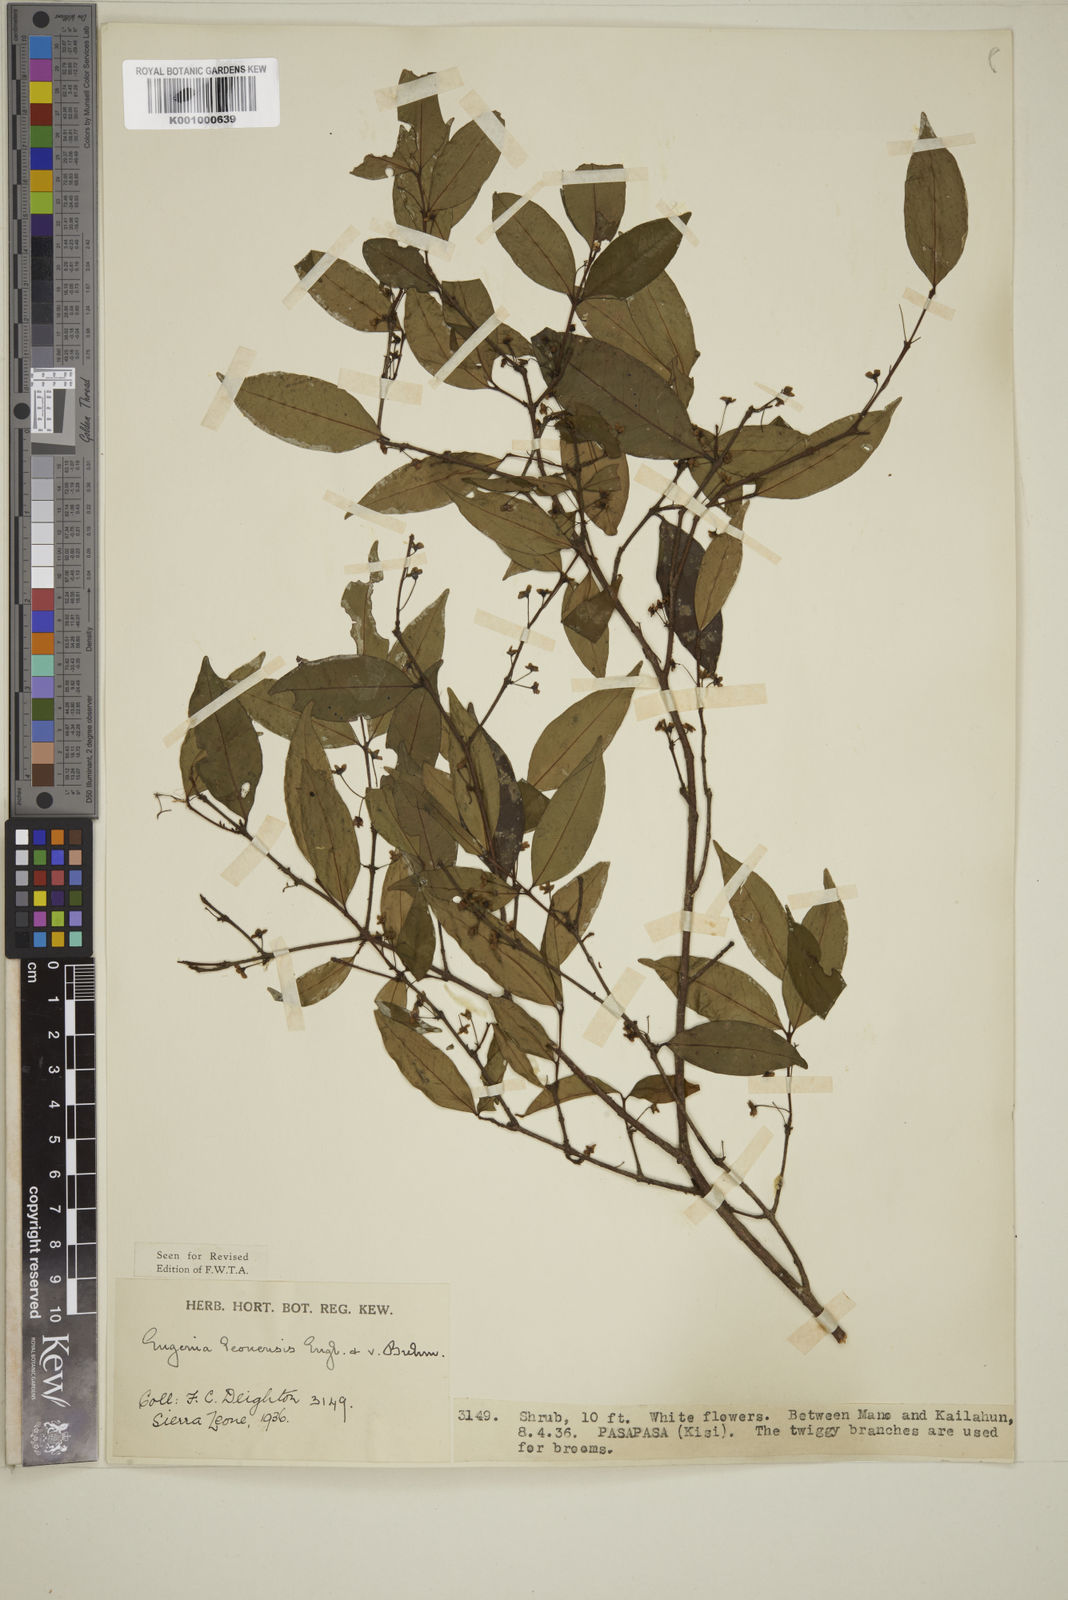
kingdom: Plantae
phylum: Tracheophyta
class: Magnoliopsida
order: Myrtales
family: Myrtaceae
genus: Eugenia
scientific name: Eugenia leonensis
